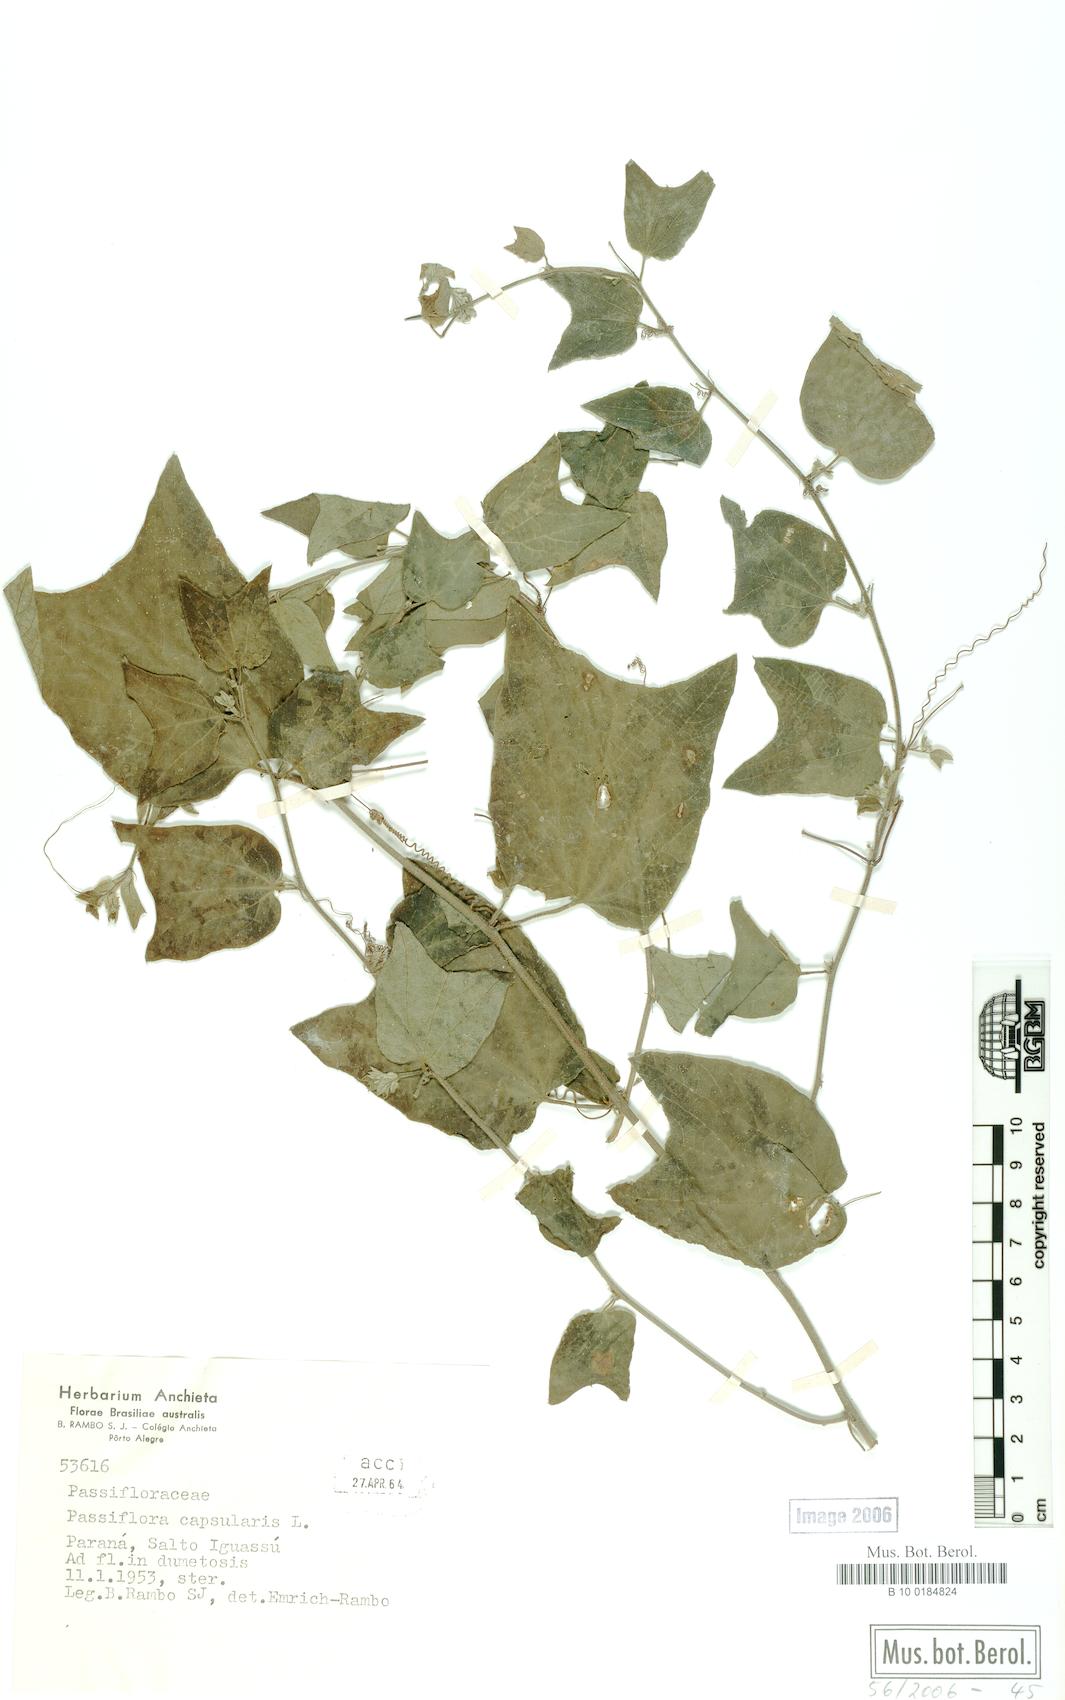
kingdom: Plantae
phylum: Tracheophyta
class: Magnoliopsida
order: Malpighiales
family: Passifloraceae
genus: Passiflora
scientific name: Passiflora capsularis
